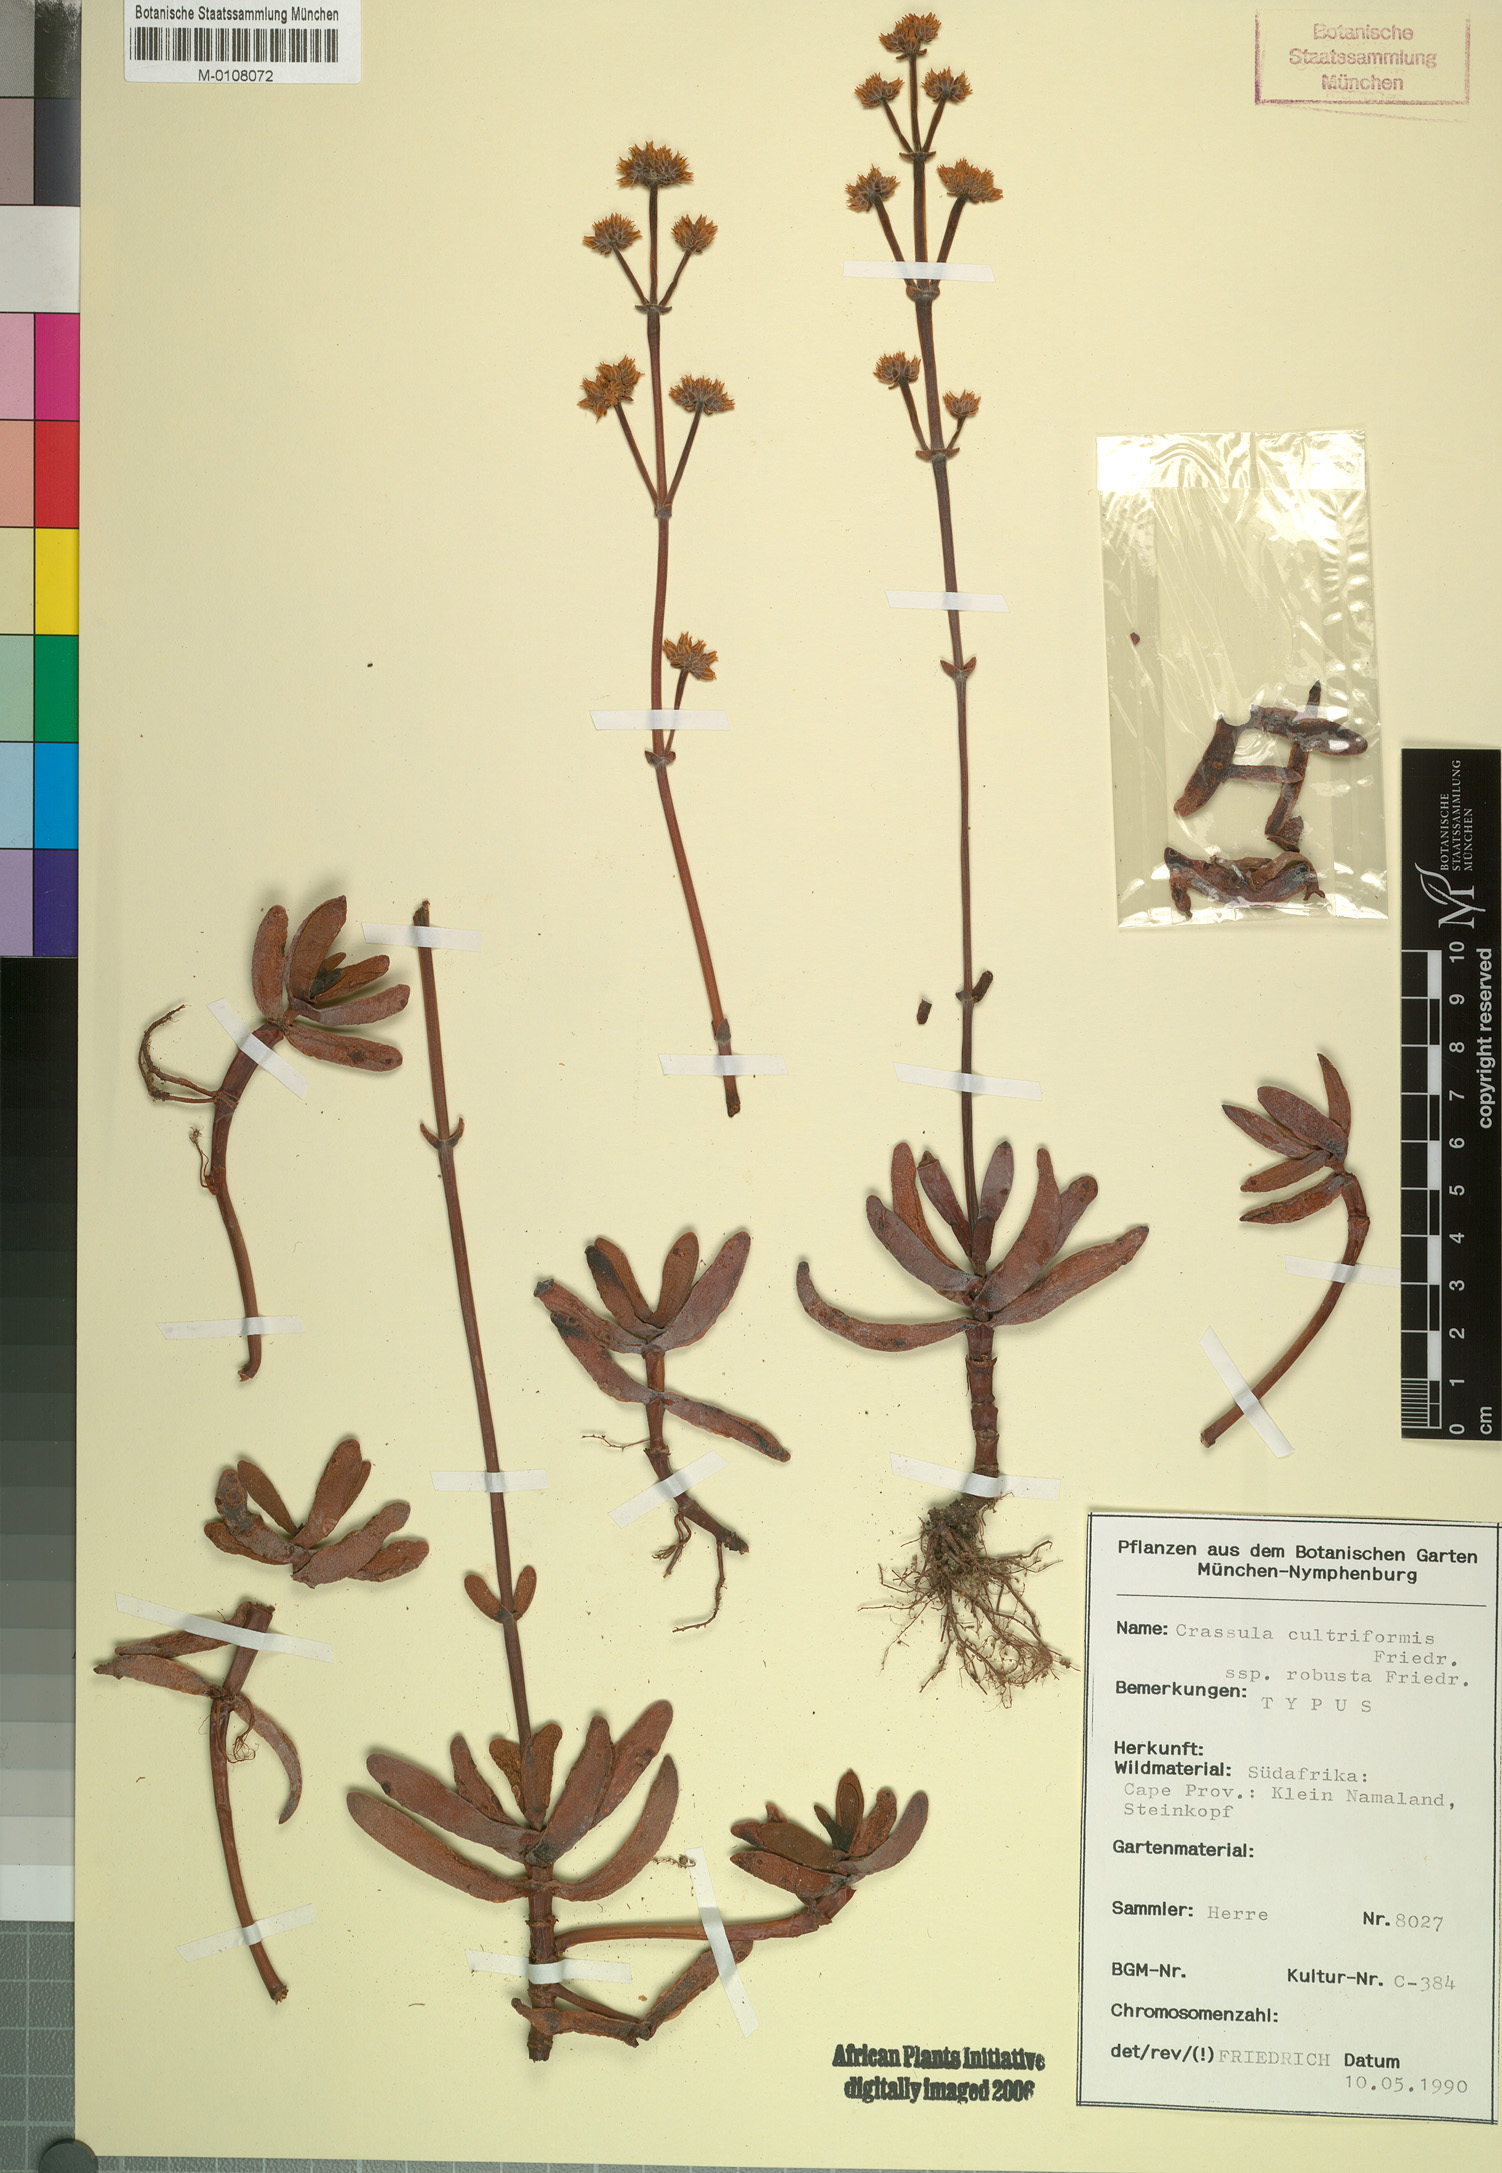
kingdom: Plantae
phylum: Tracheophyta
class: Magnoliopsida
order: Saxifragales
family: Crassulaceae
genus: Crassula
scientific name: Crassula atropurpurea
